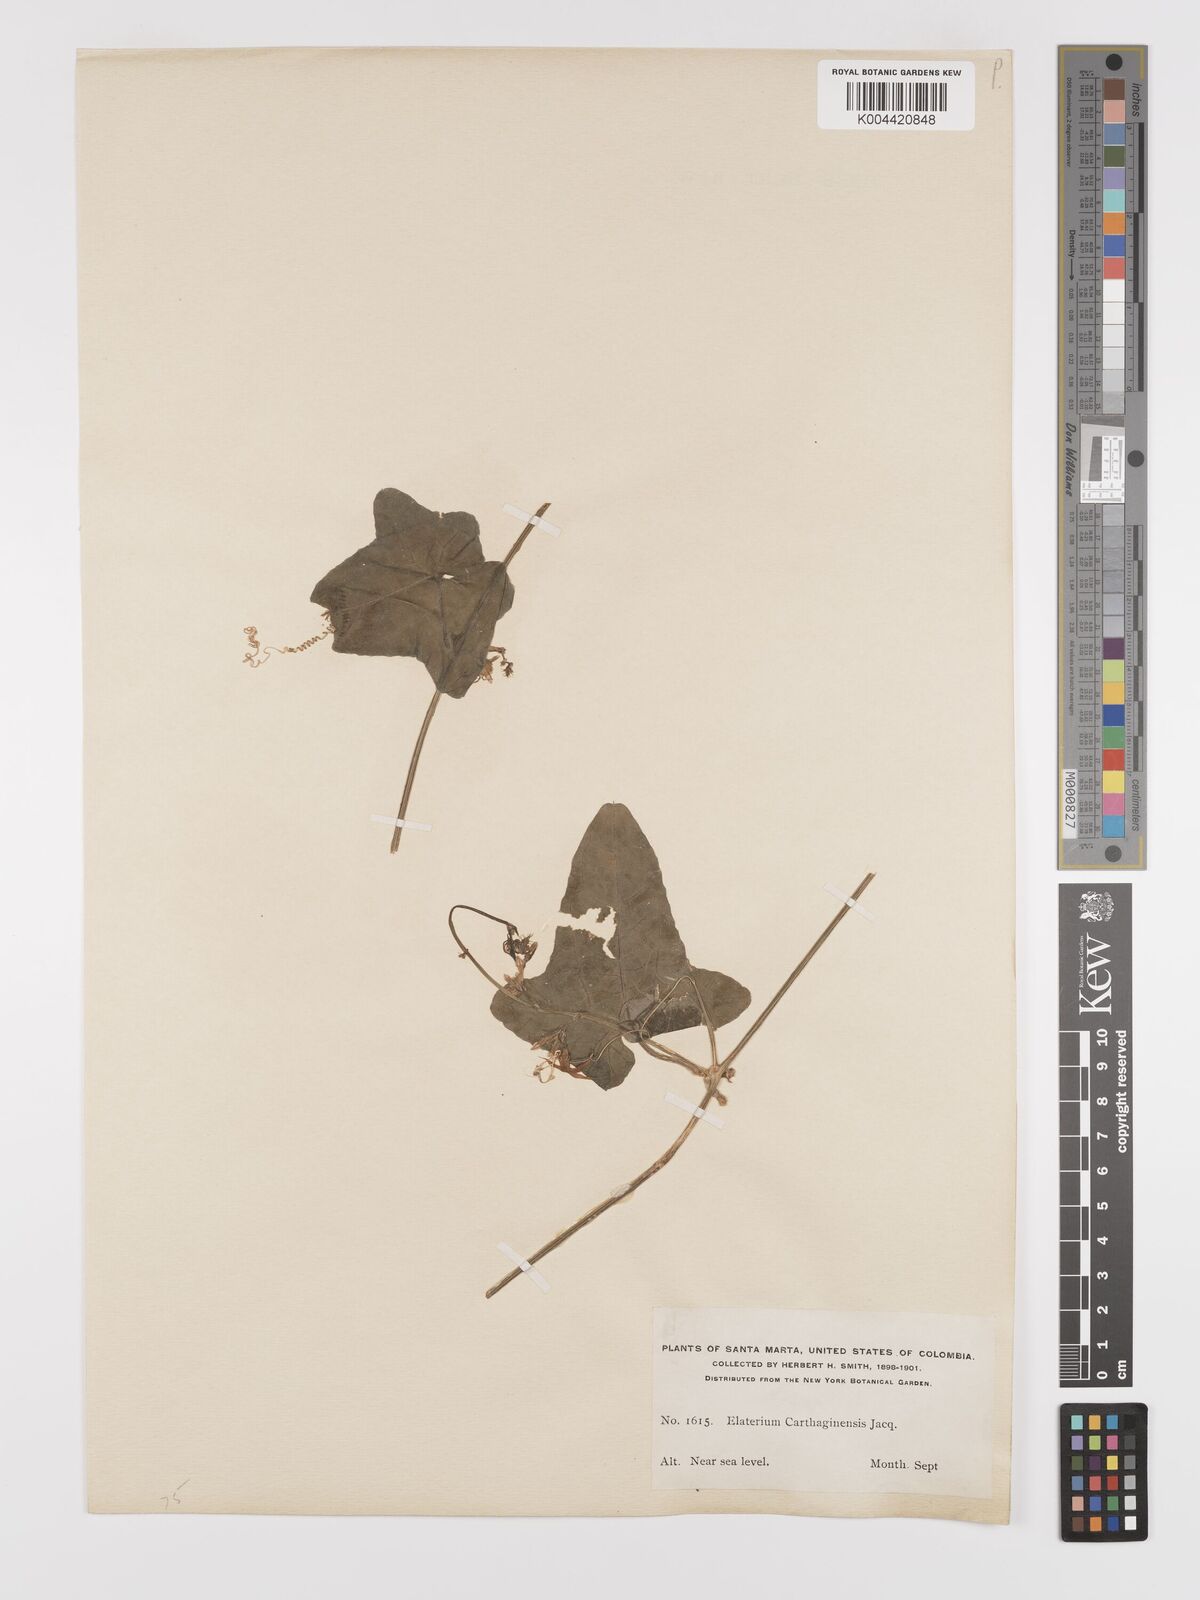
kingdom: Plantae
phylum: Tracheophyta
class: Magnoliopsida
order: Cucurbitales
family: Cucurbitaceae
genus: Cyclanthera
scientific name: Cyclanthera carthagenensis
